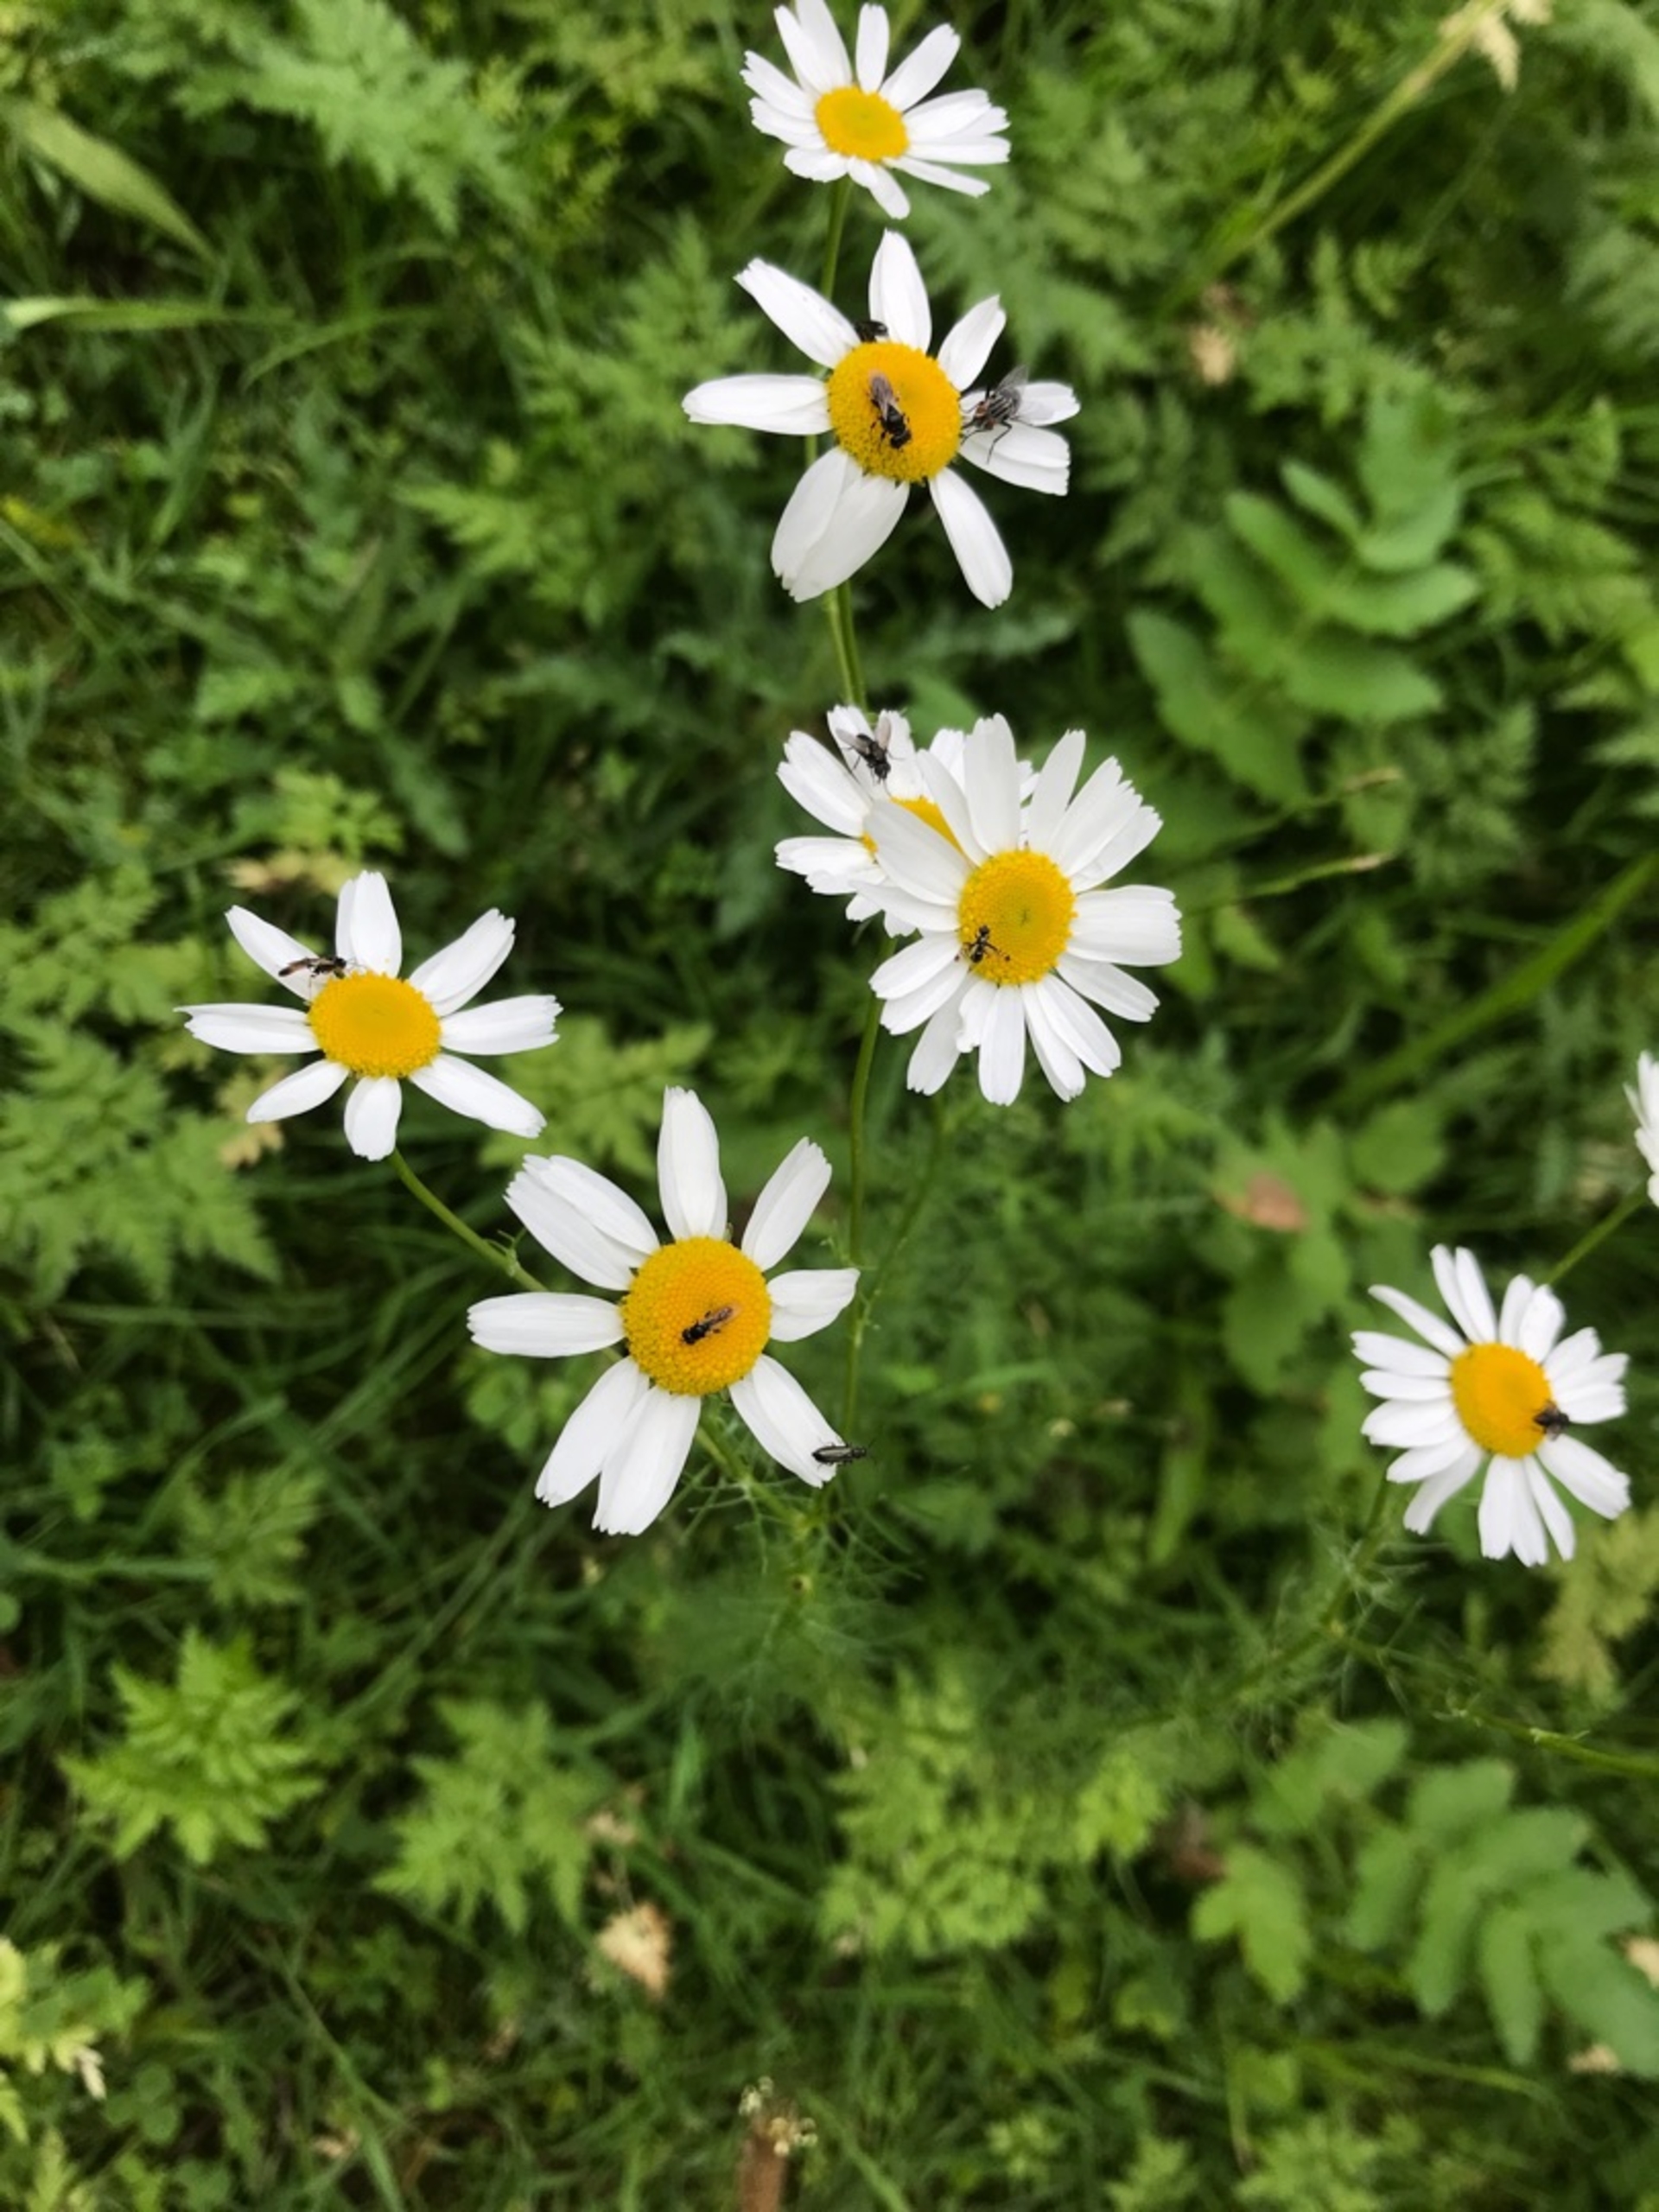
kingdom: Plantae
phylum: Tracheophyta
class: Magnoliopsida
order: Asterales
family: Asteraceae
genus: Tripleurospermum
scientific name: Tripleurospermum inodorum
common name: Lugtløs kamille
